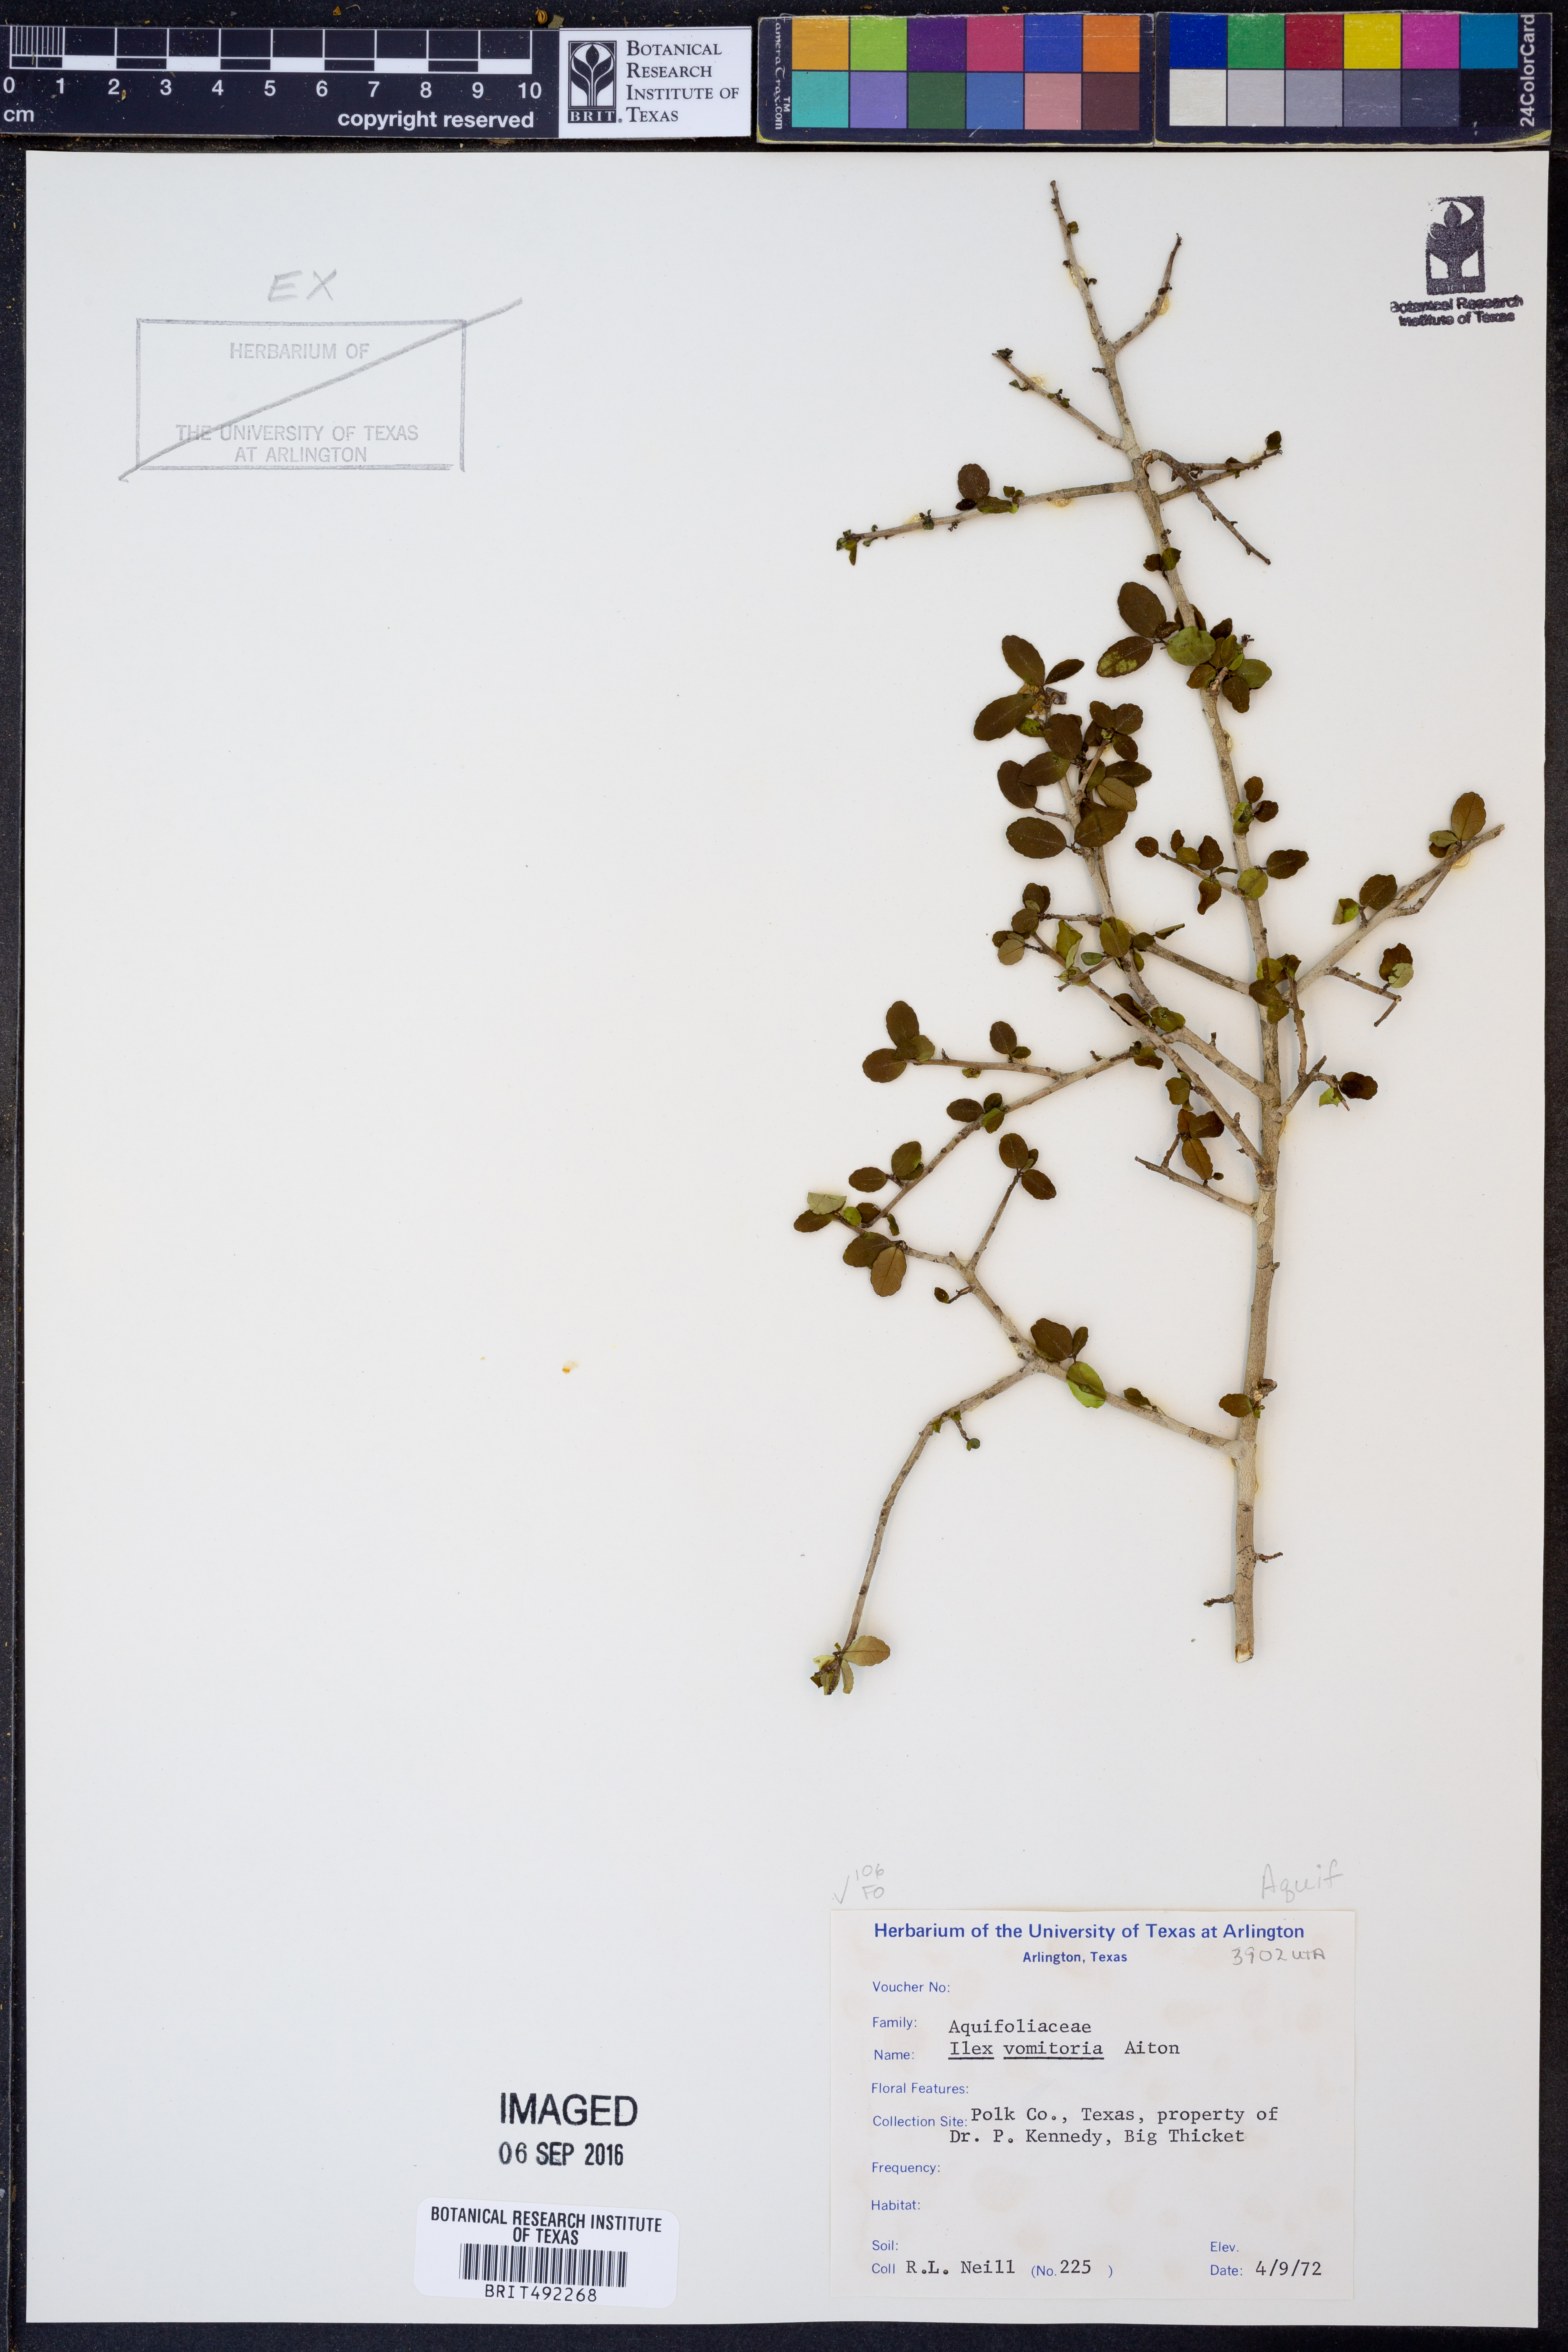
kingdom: Plantae
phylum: Tracheophyta
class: Magnoliopsida
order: Aquifoliales
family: Aquifoliaceae
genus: Ilex
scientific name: Ilex vomitoria
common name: Yaupon holly
